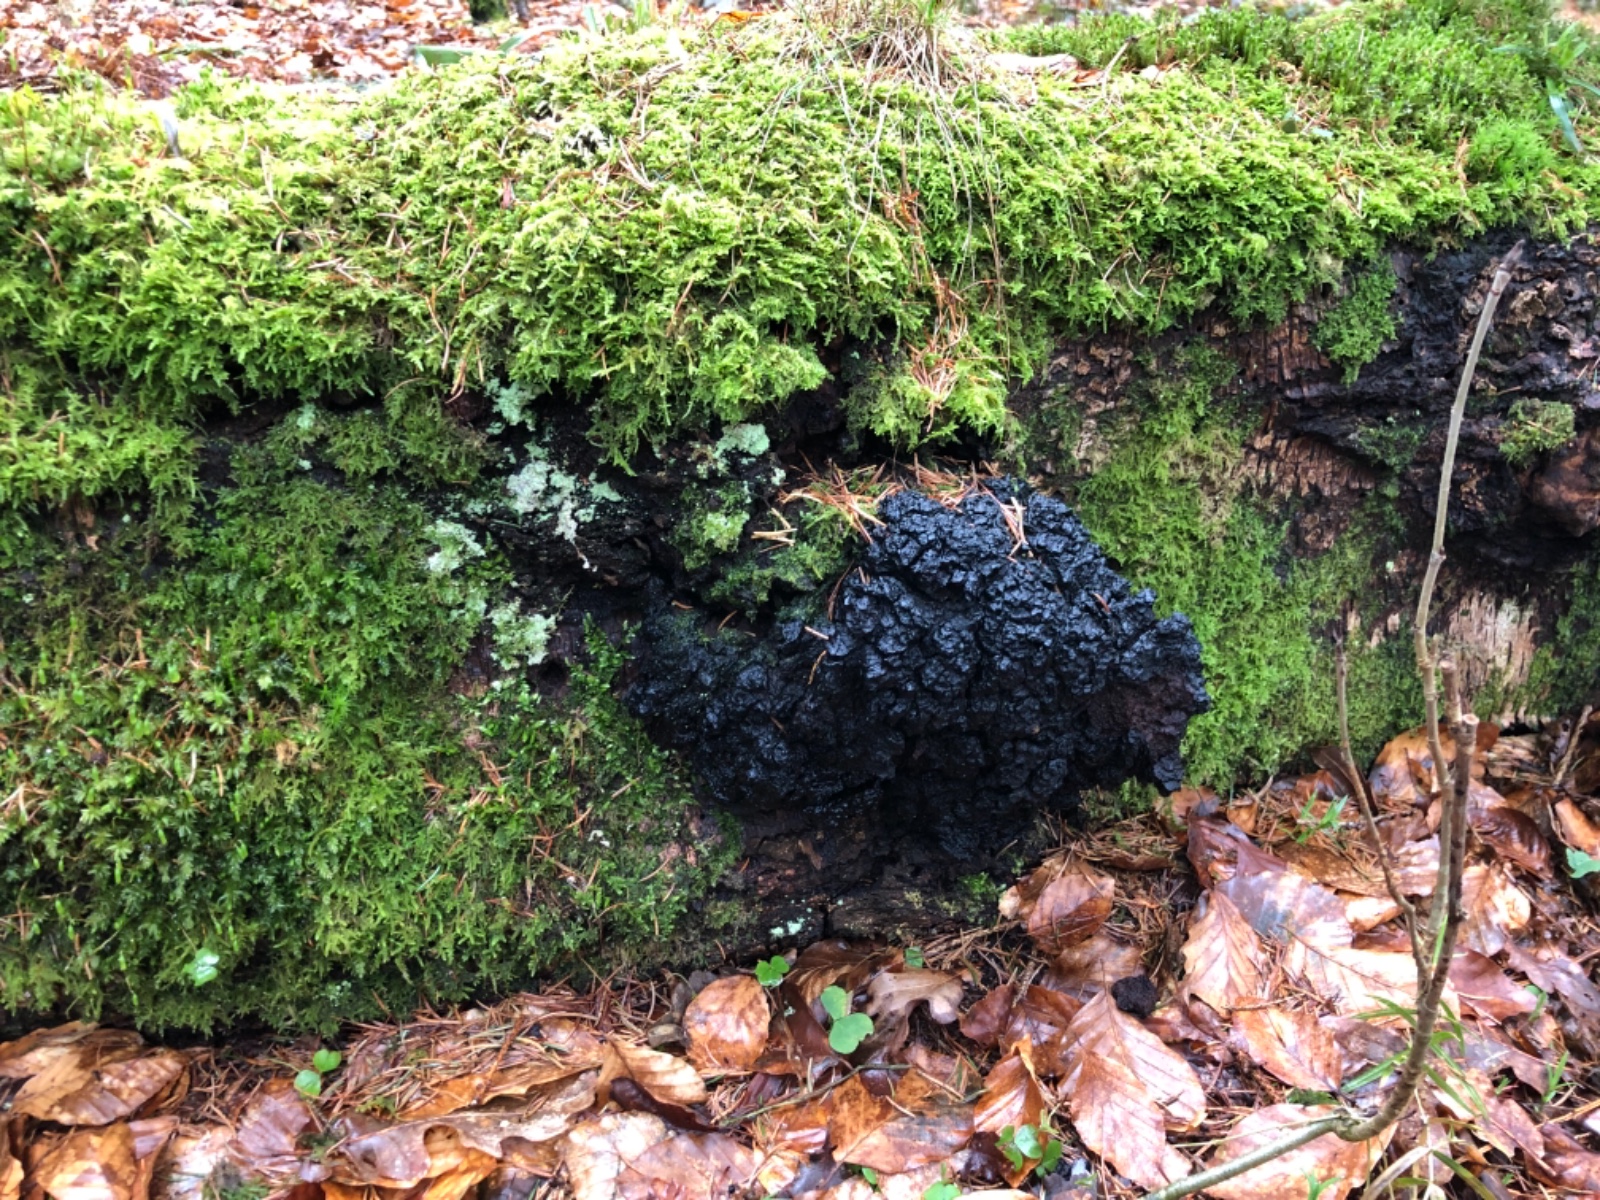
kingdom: Fungi
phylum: Basidiomycota
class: Agaricomycetes
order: Hymenochaetales
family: Hymenochaetaceae
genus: Inonotus
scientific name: Inonotus obliquus
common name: birke-spejlporesvamp
